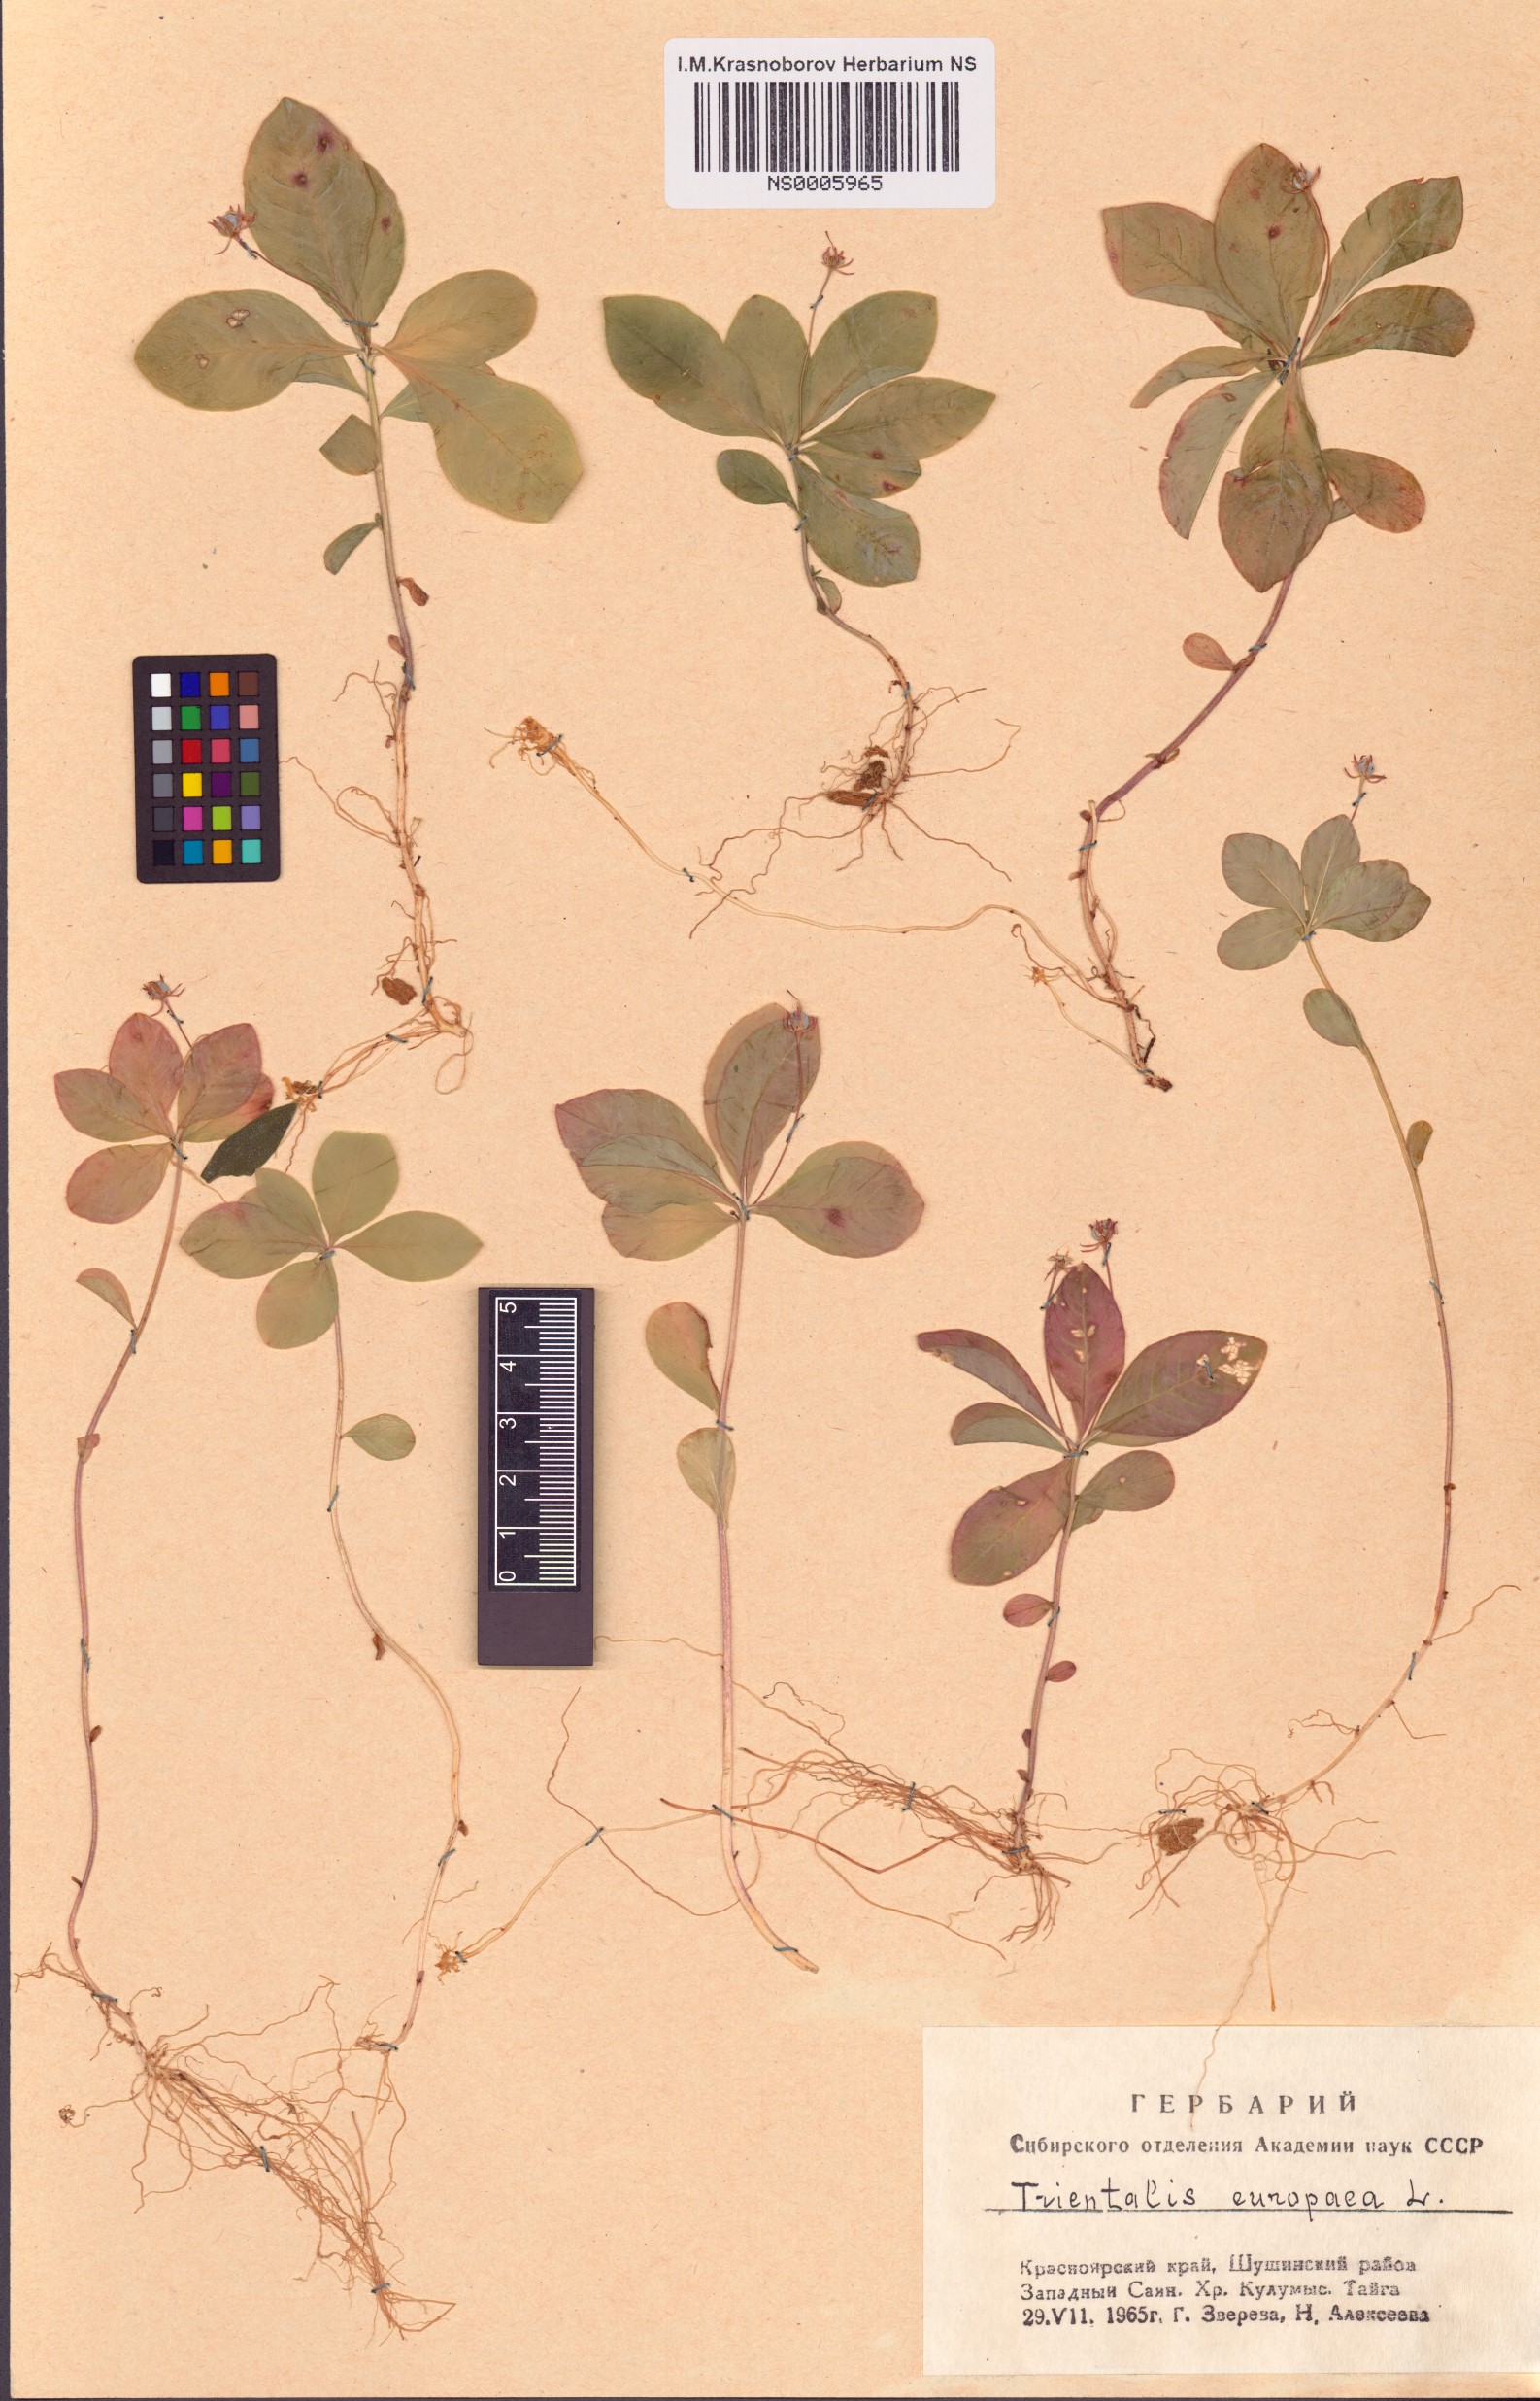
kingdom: Plantae
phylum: Tracheophyta
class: Magnoliopsida
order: Ericales
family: Primulaceae
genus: Lysimachia
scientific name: Lysimachia europaea
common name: Arctic starflower
